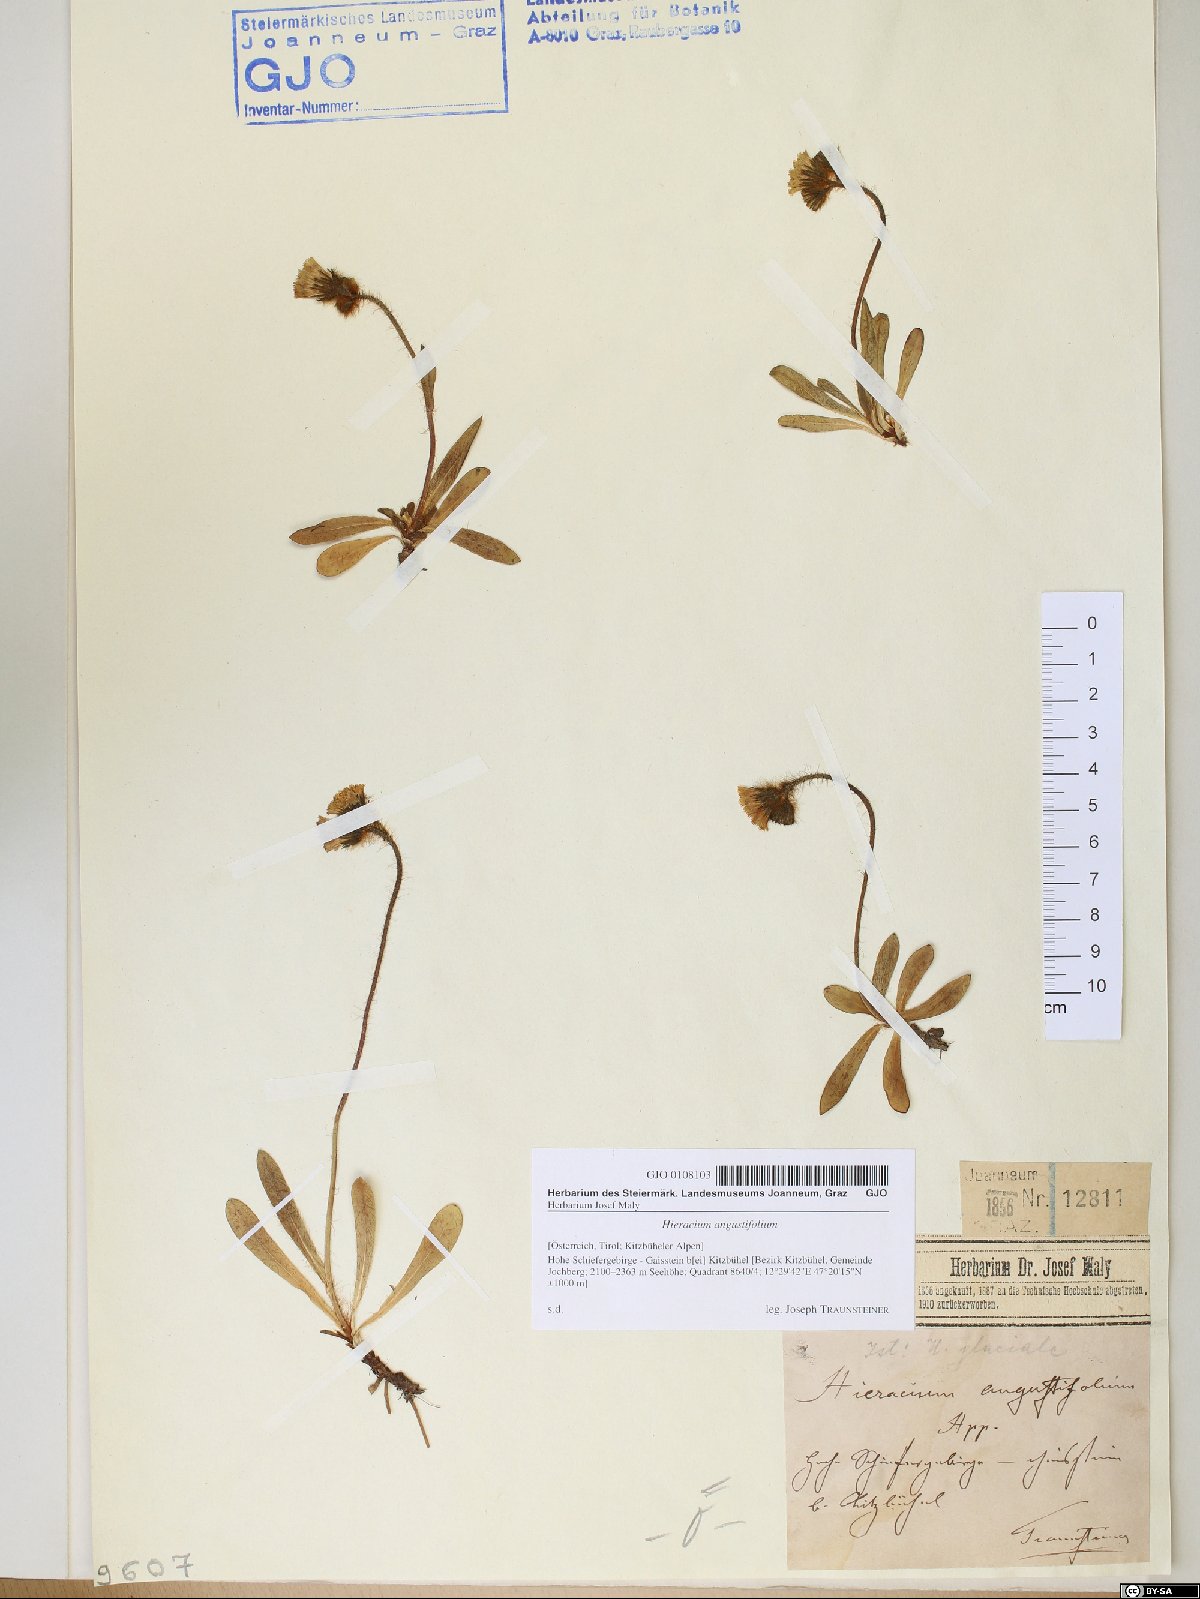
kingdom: Plantae
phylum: Tracheophyta
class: Magnoliopsida
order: Asterales
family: Asteraceae
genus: Pilosella
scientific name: Pilosella glacialis
